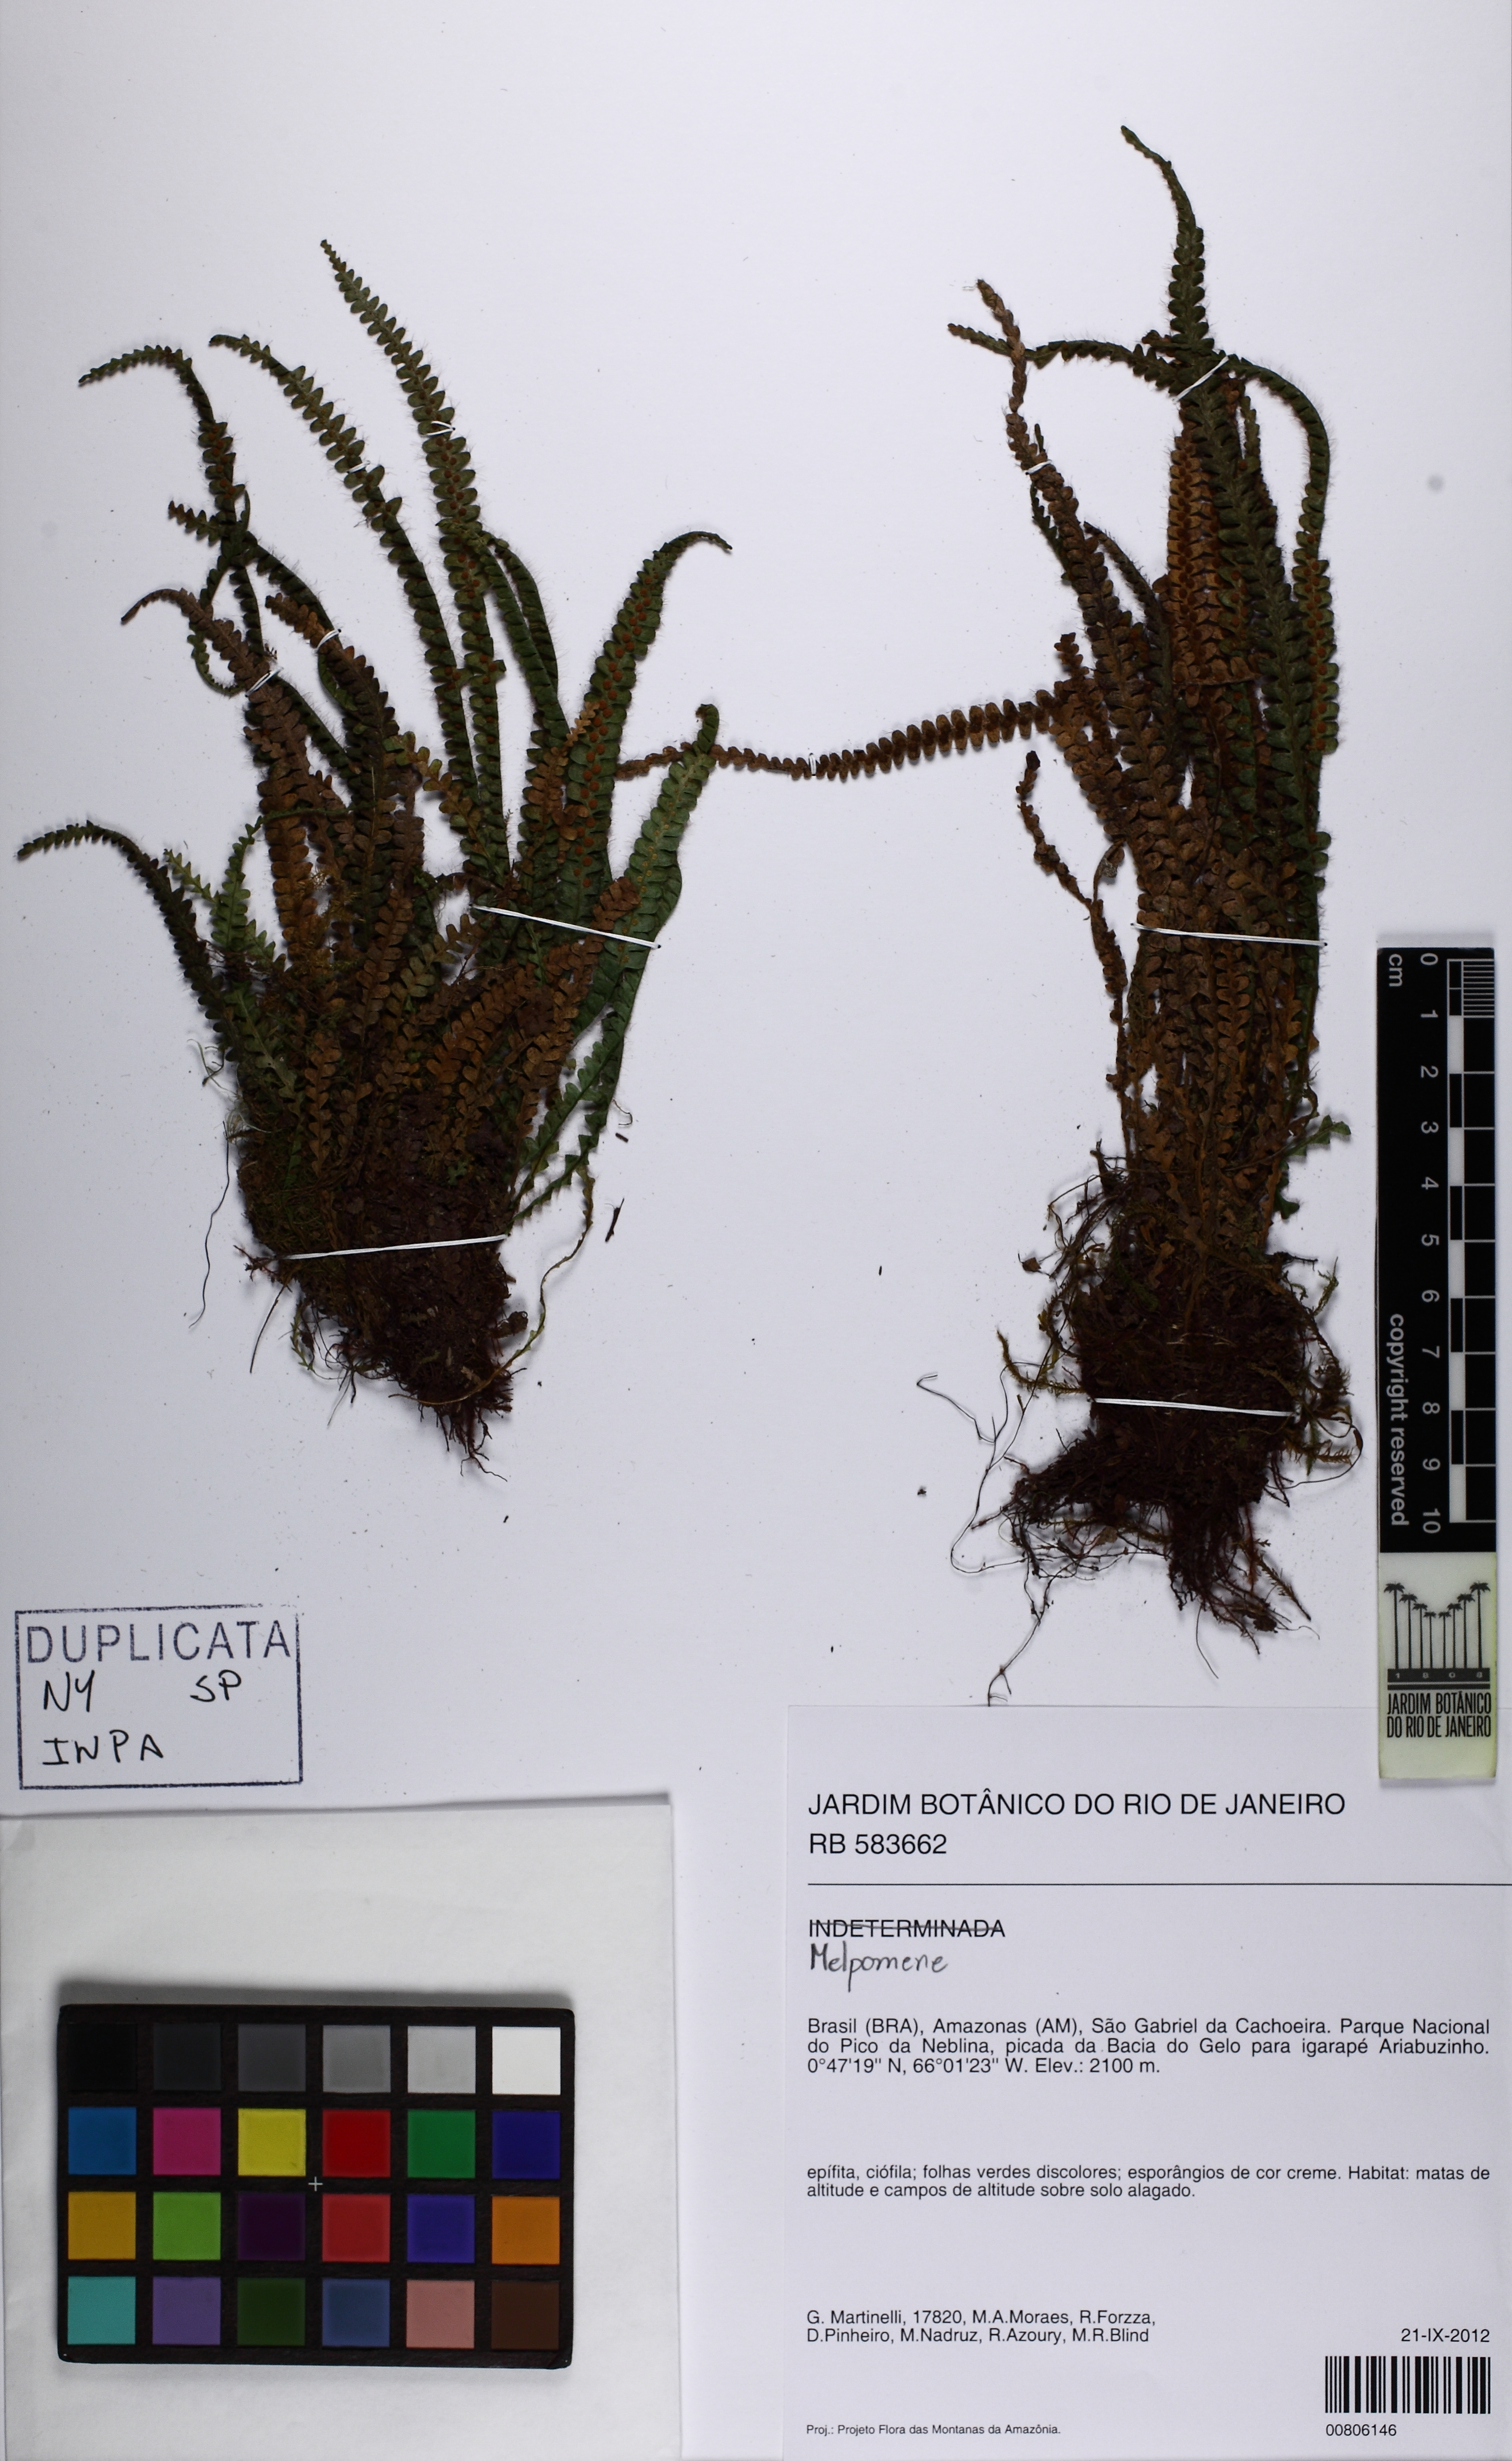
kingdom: Plantae
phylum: Tracheophyta
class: Polypodiopsida
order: Polypodiales
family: Polypodiaceae
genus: Melpomene
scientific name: Melpomene
